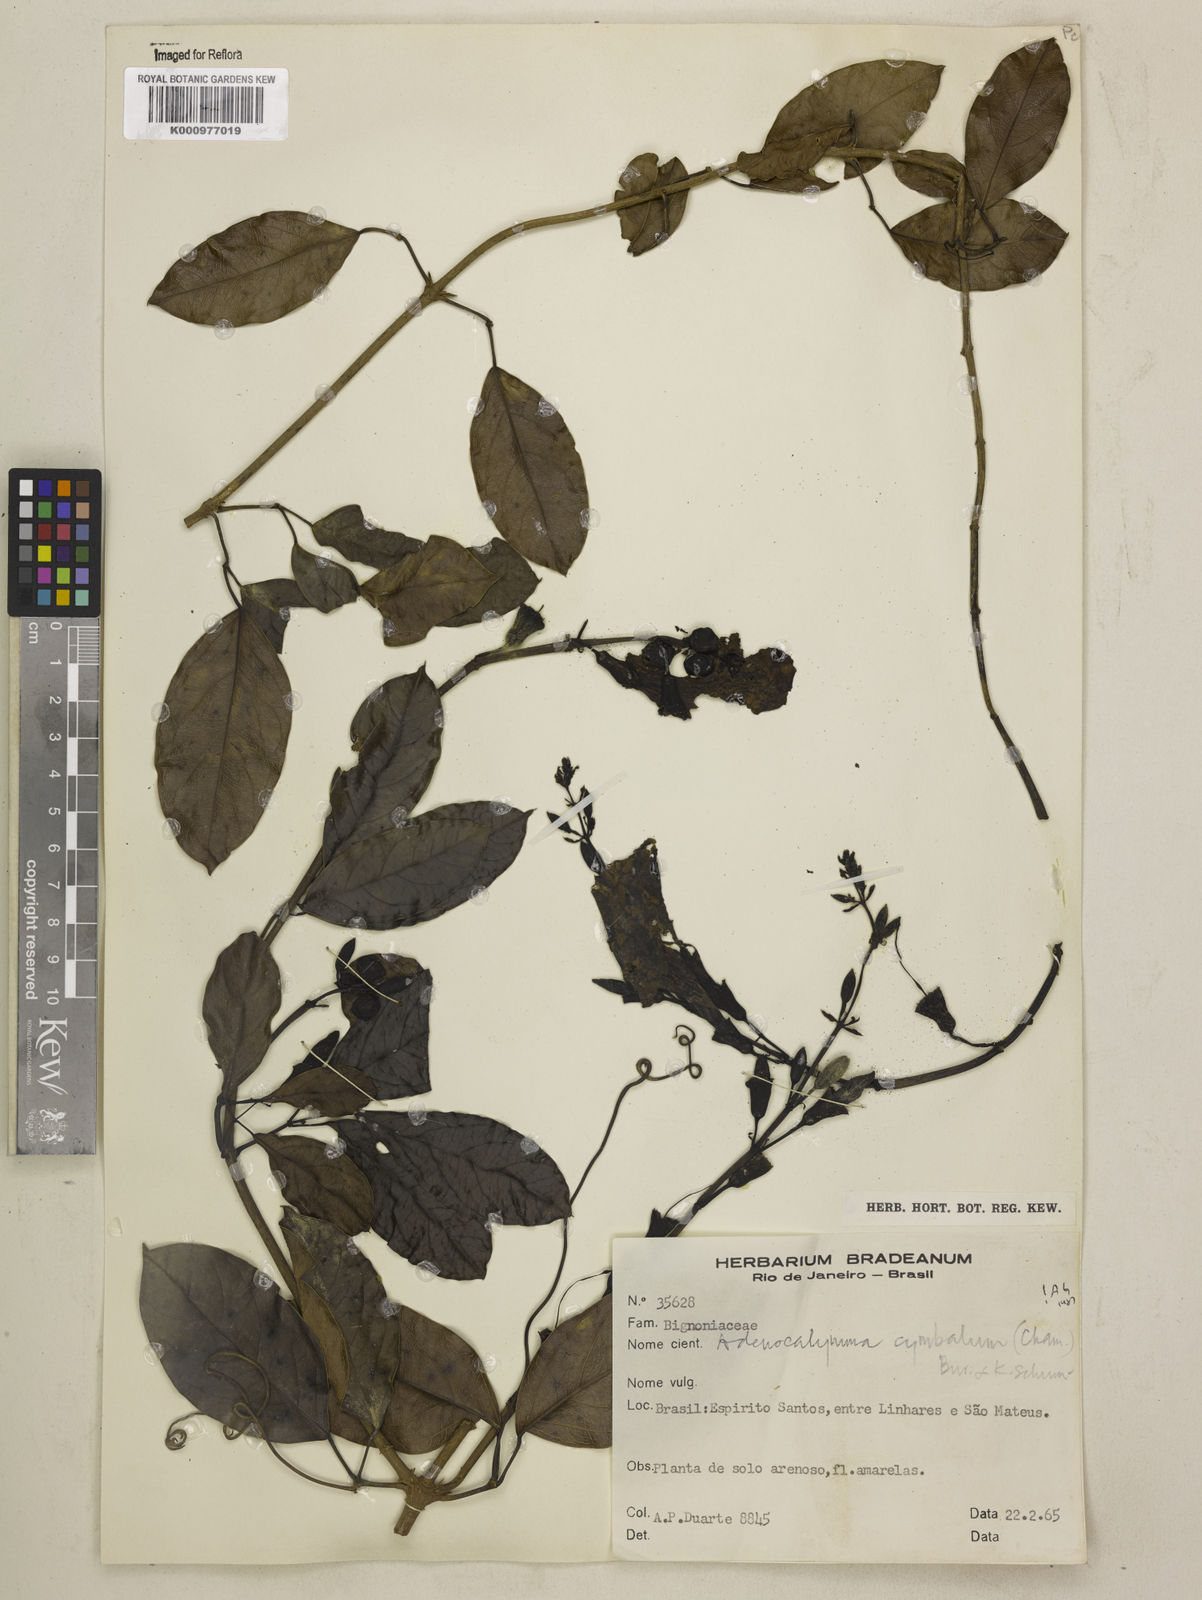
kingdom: Plantae
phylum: Tracheophyta
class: Magnoliopsida
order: Lamiales
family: Bignoniaceae
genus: Adenocalymma
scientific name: Adenocalymma cymbalum
